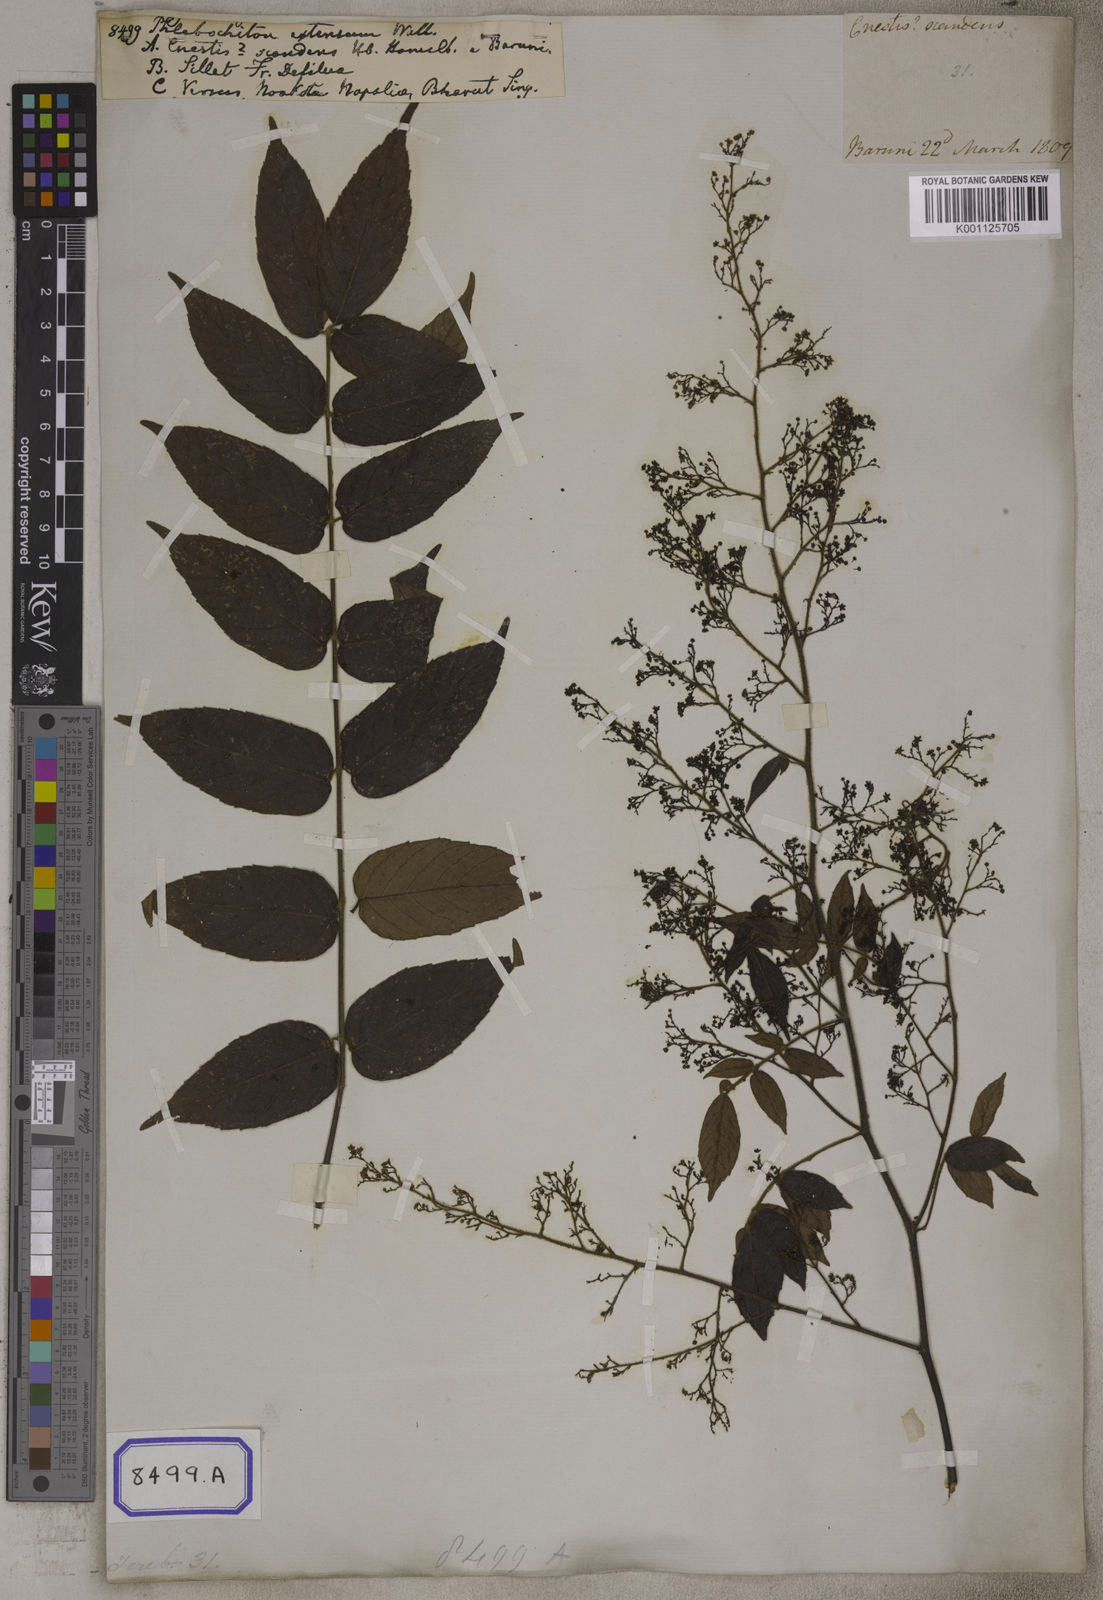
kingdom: Plantae
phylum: Tracheophyta
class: Magnoliopsida
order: Sapindales
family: Anacardiaceae
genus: Pegia
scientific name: Pegia nitida
